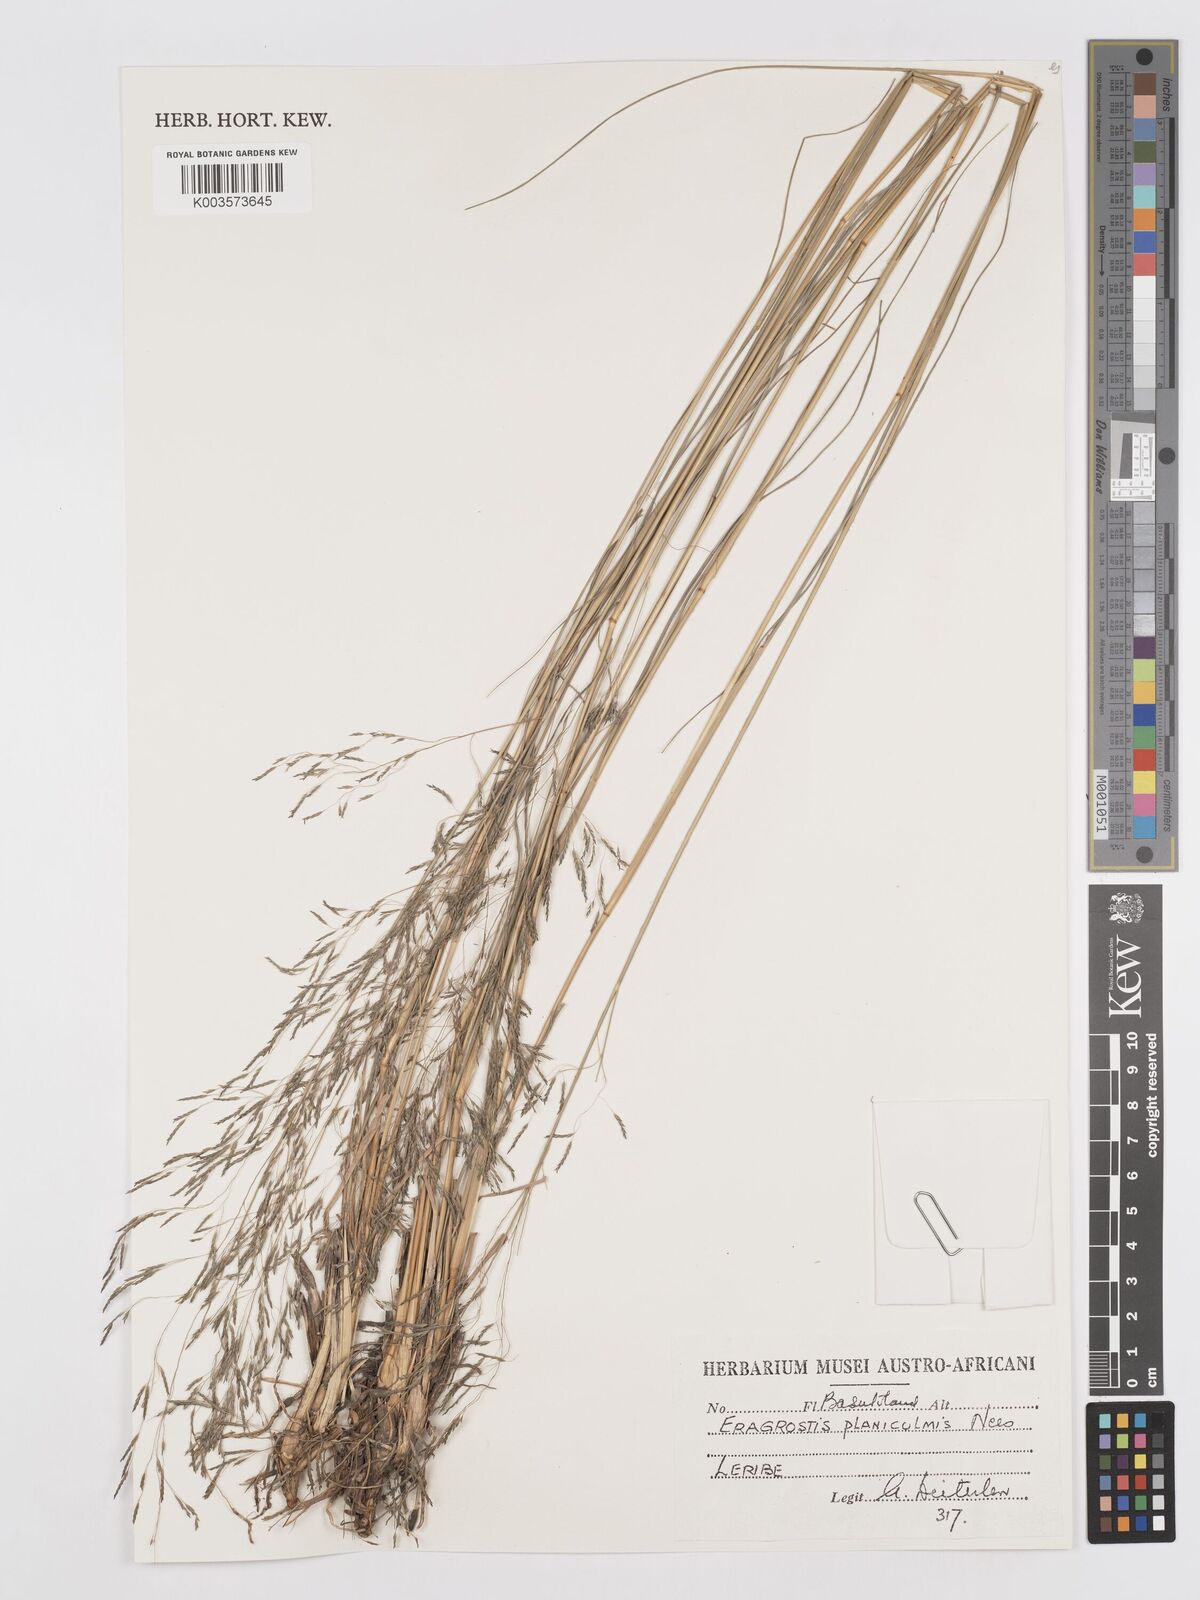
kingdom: Plantae
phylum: Tracheophyta
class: Liliopsida
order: Poales
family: Poaceae
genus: Eragrostis
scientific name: Eragrostis planiculmis
